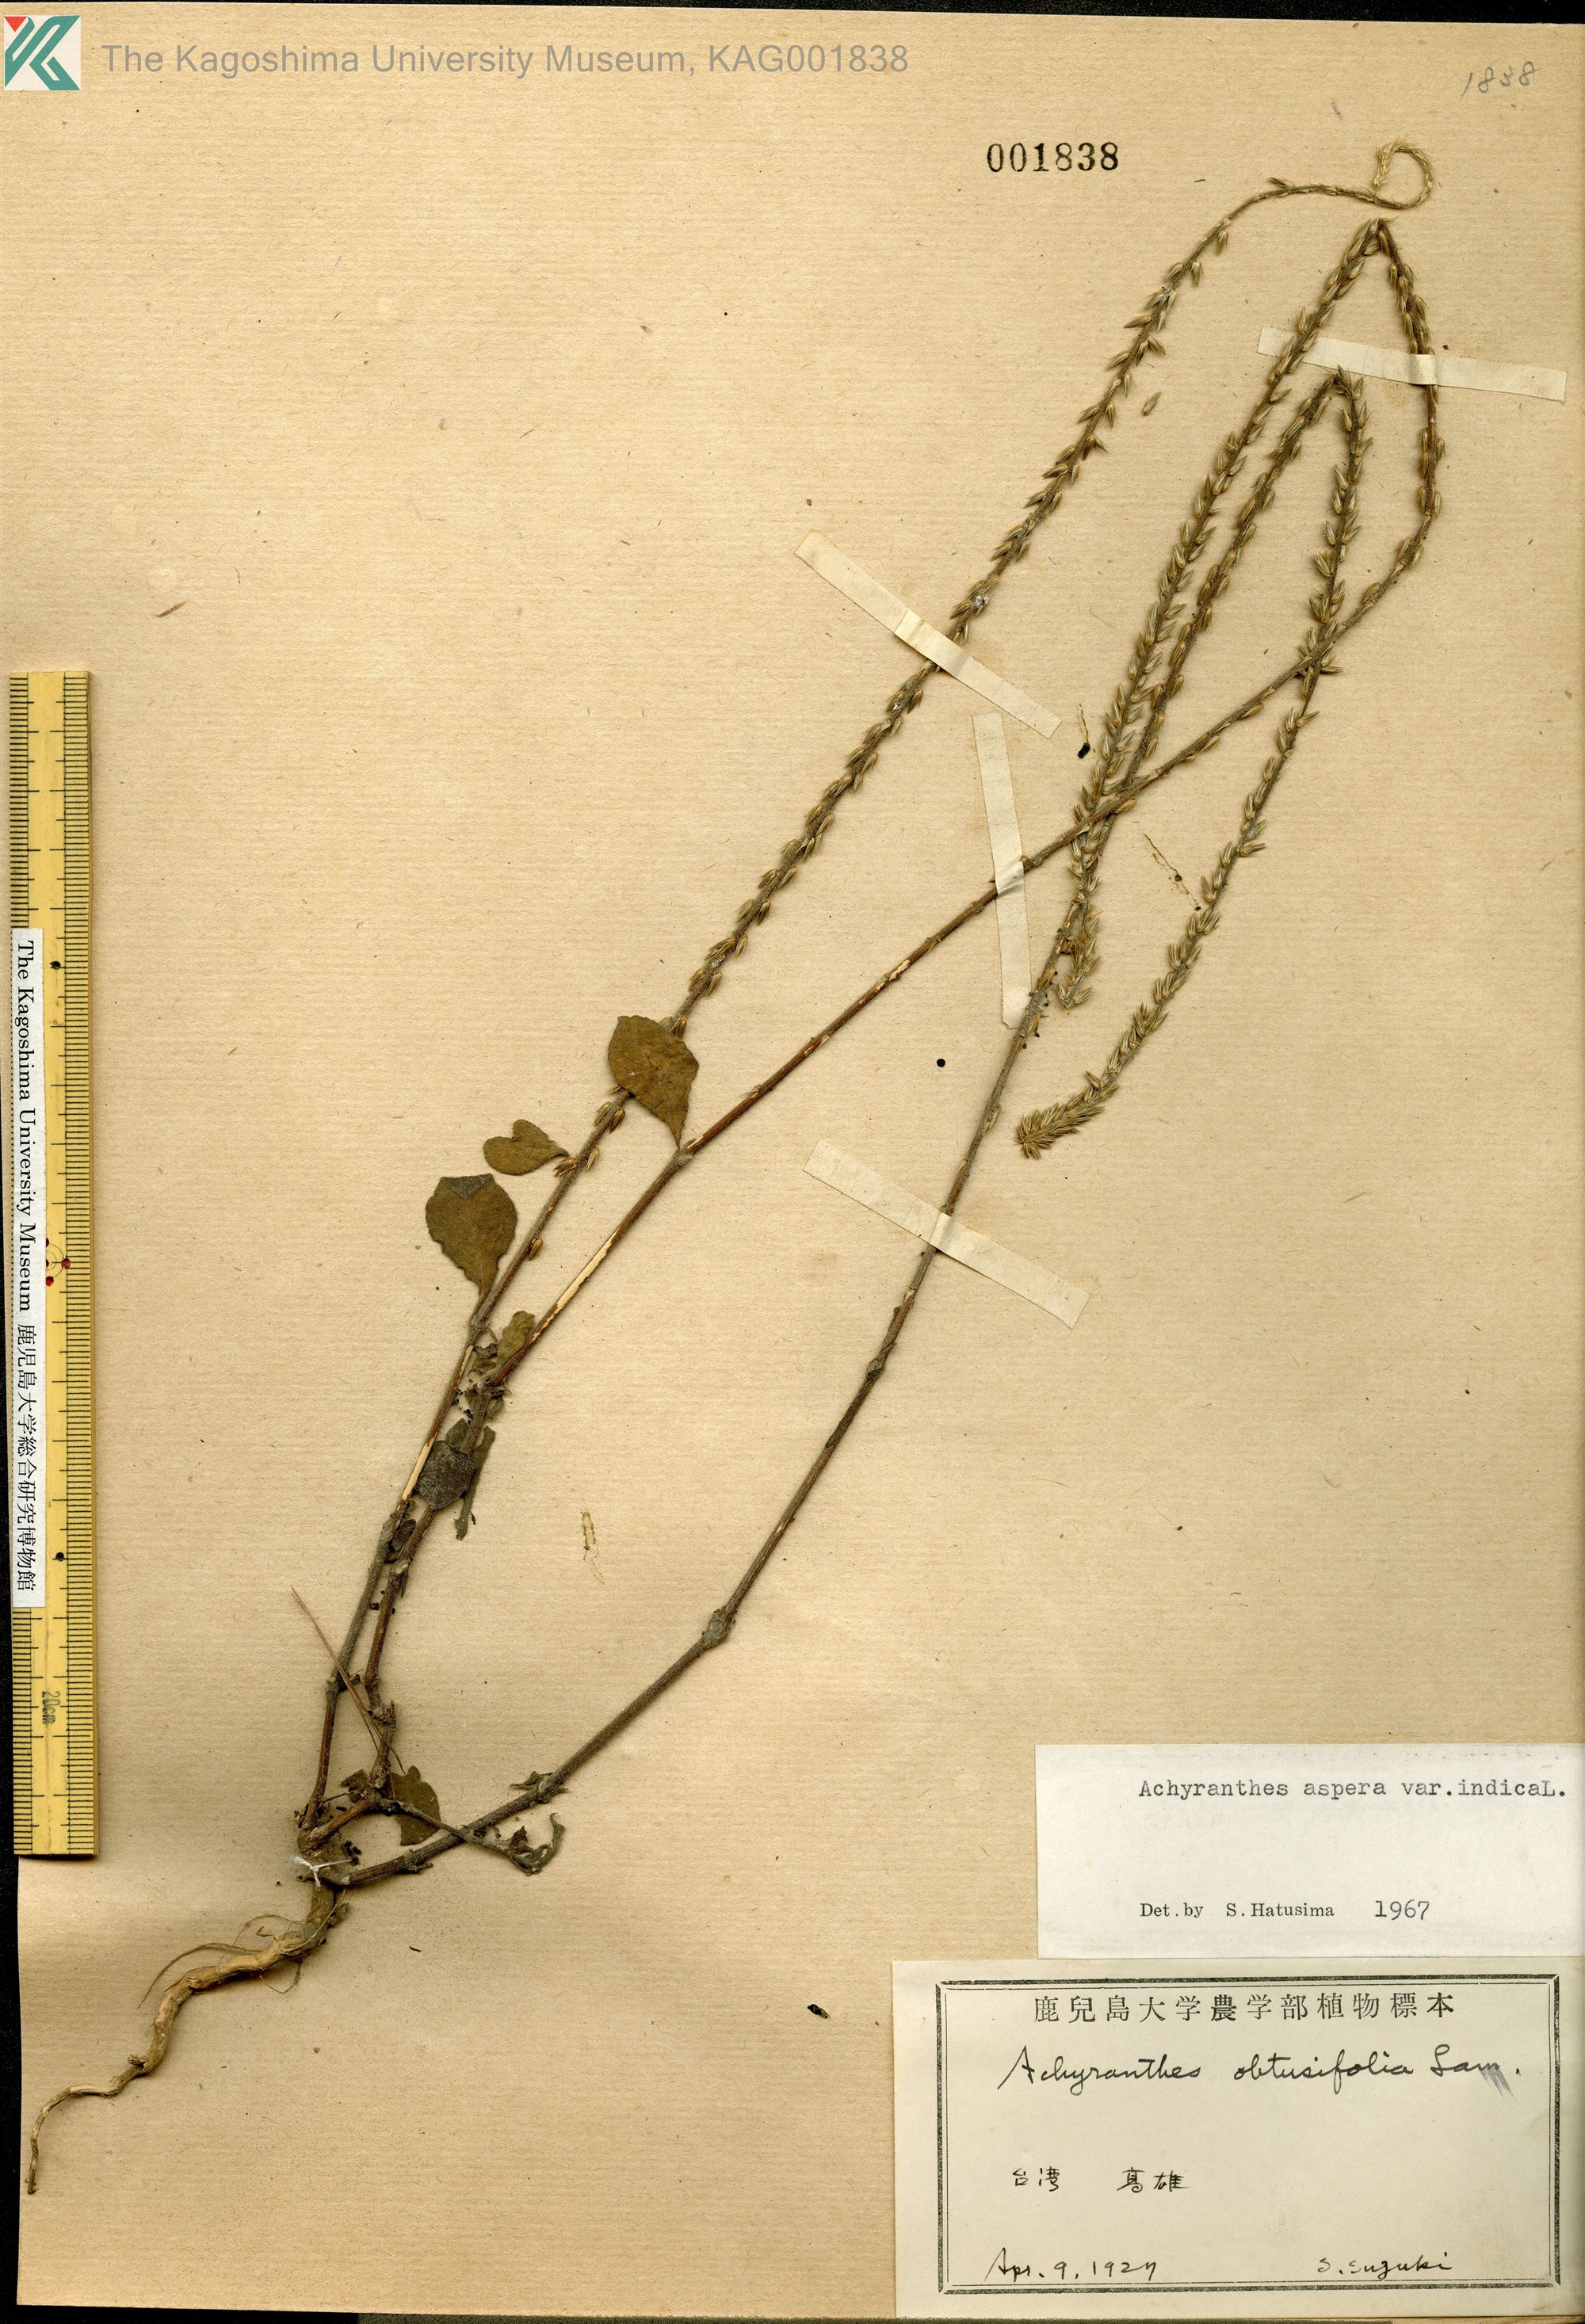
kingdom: Plantae
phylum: Tracheophyta
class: Magnoliopsida
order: Caryophyllales
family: Amaranthaceae
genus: Achyranthes
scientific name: Achyranthes aspera
